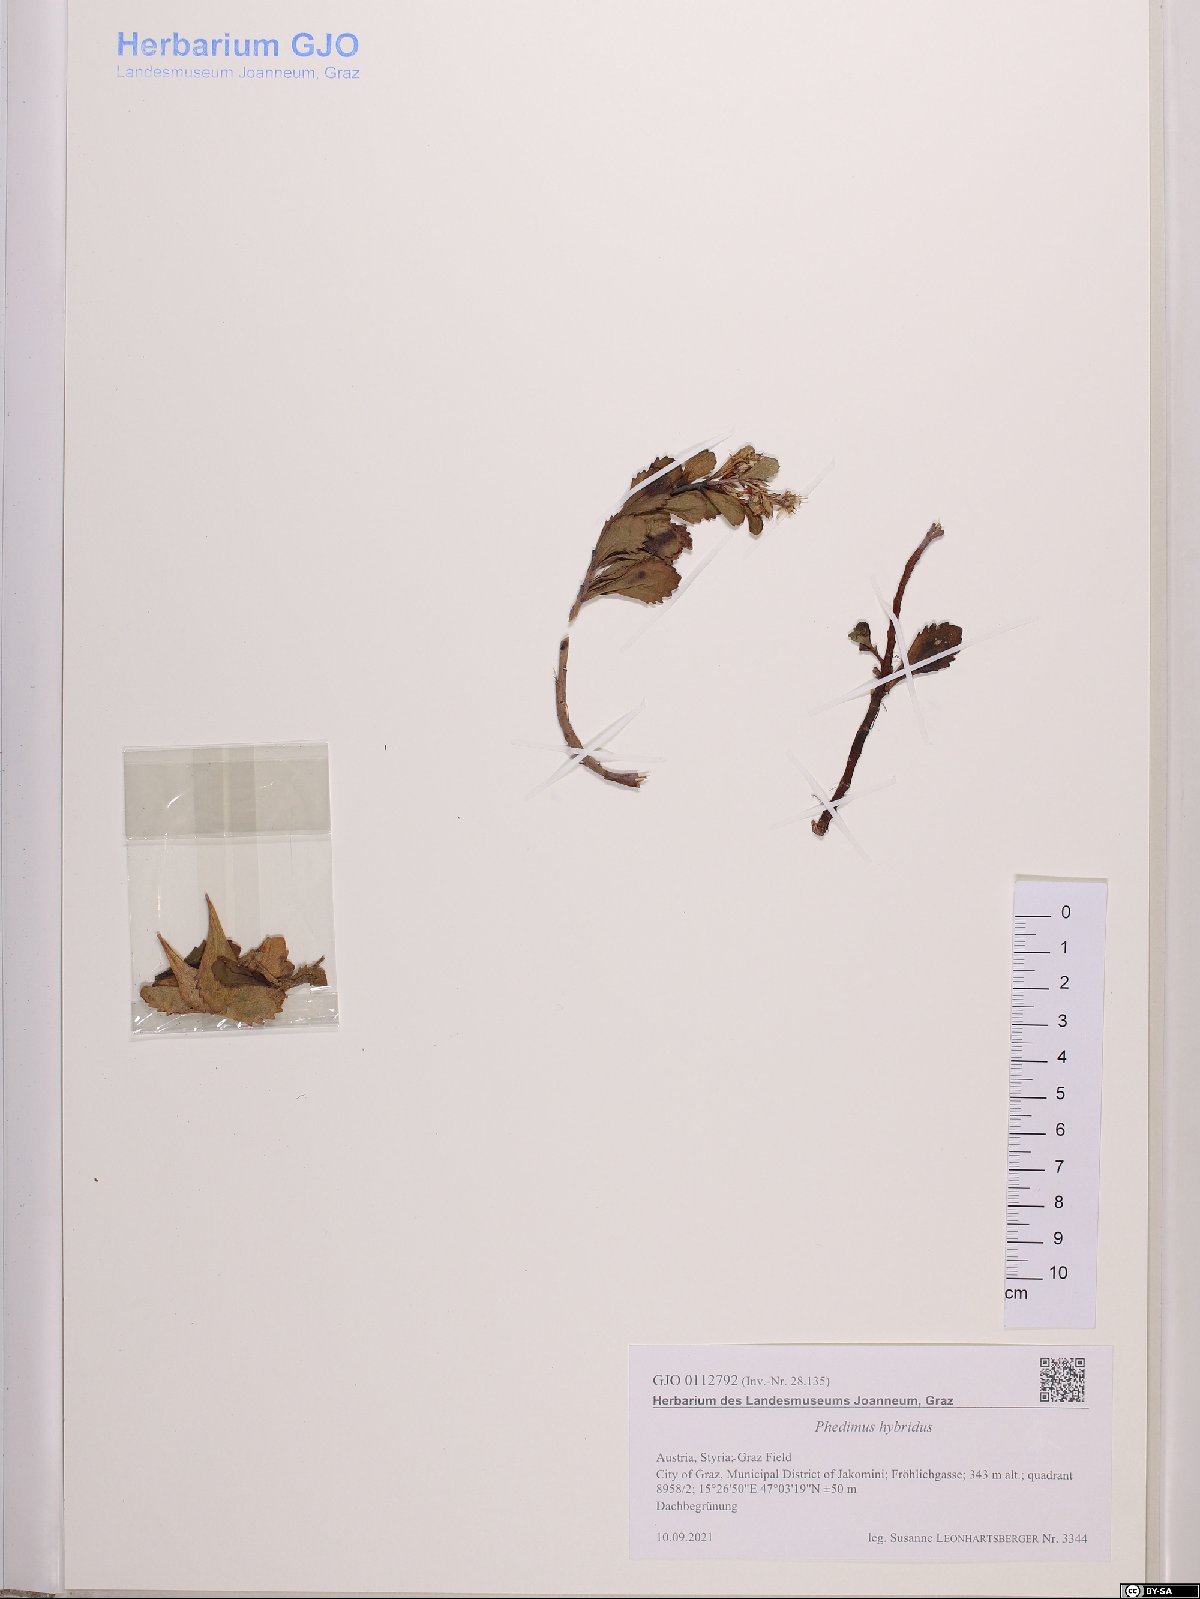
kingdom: Plantae
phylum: Tracheophyta
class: Magnoliopsida
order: Saxifragales
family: Crassulaceae
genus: Phedimus
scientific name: Phedimus hybridus
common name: Hybrid stonecrop
